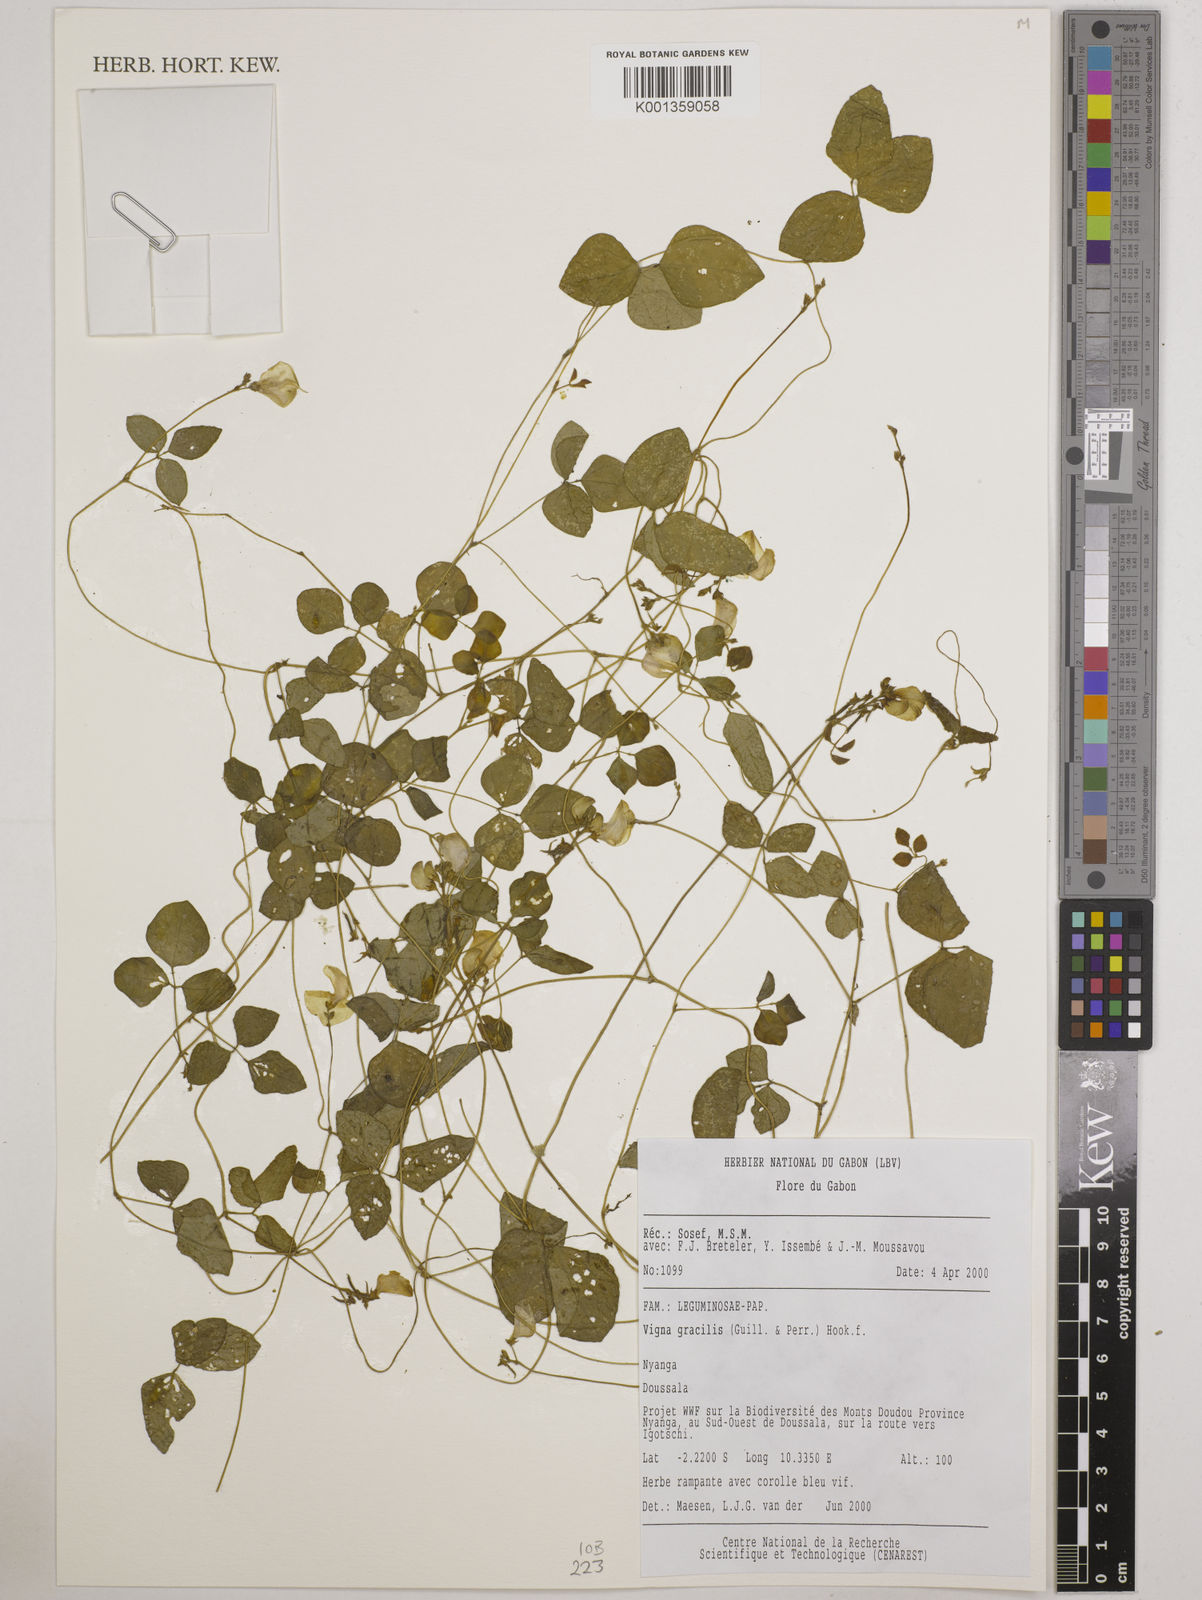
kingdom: Plantae
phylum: Tracheophyta
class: Magnoliopsida
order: Fabales
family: Fabaceae
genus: Vigna
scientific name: Vigna gracilis
